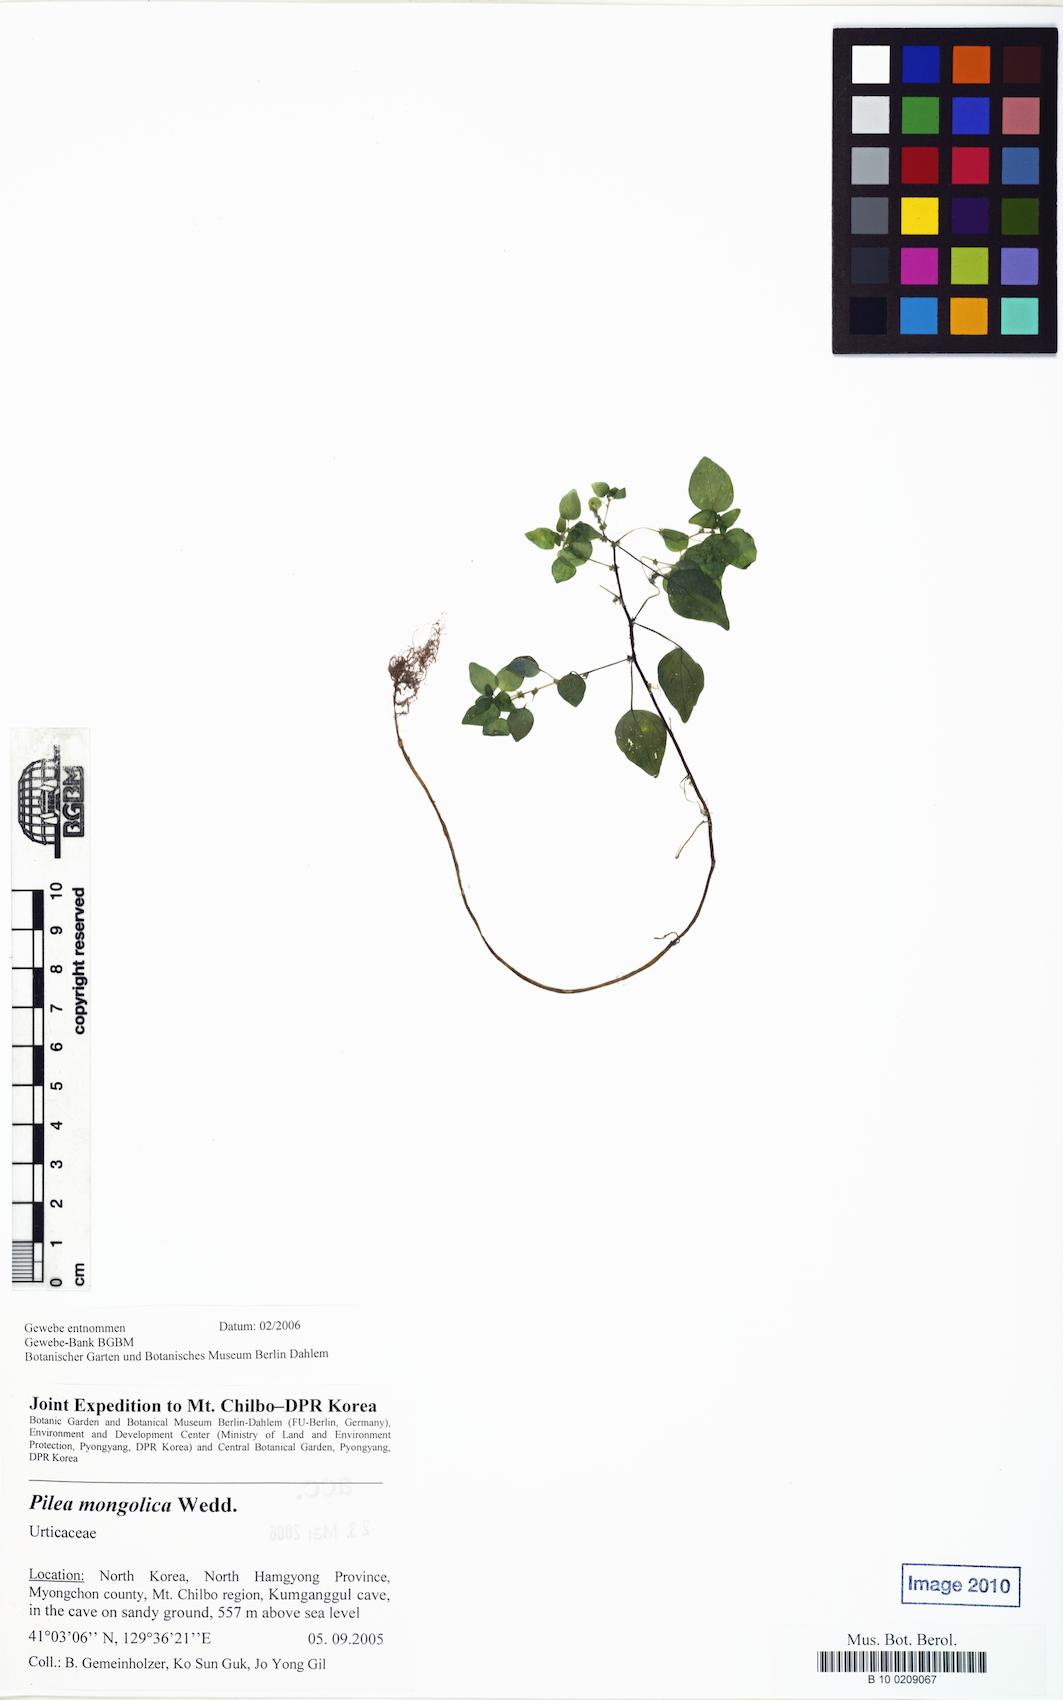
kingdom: Plantae
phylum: Tracheophyta
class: Magnoliopsida
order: Rosales
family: Urticaceae
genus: Pilea
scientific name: Pilea pumila
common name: Clearweed
